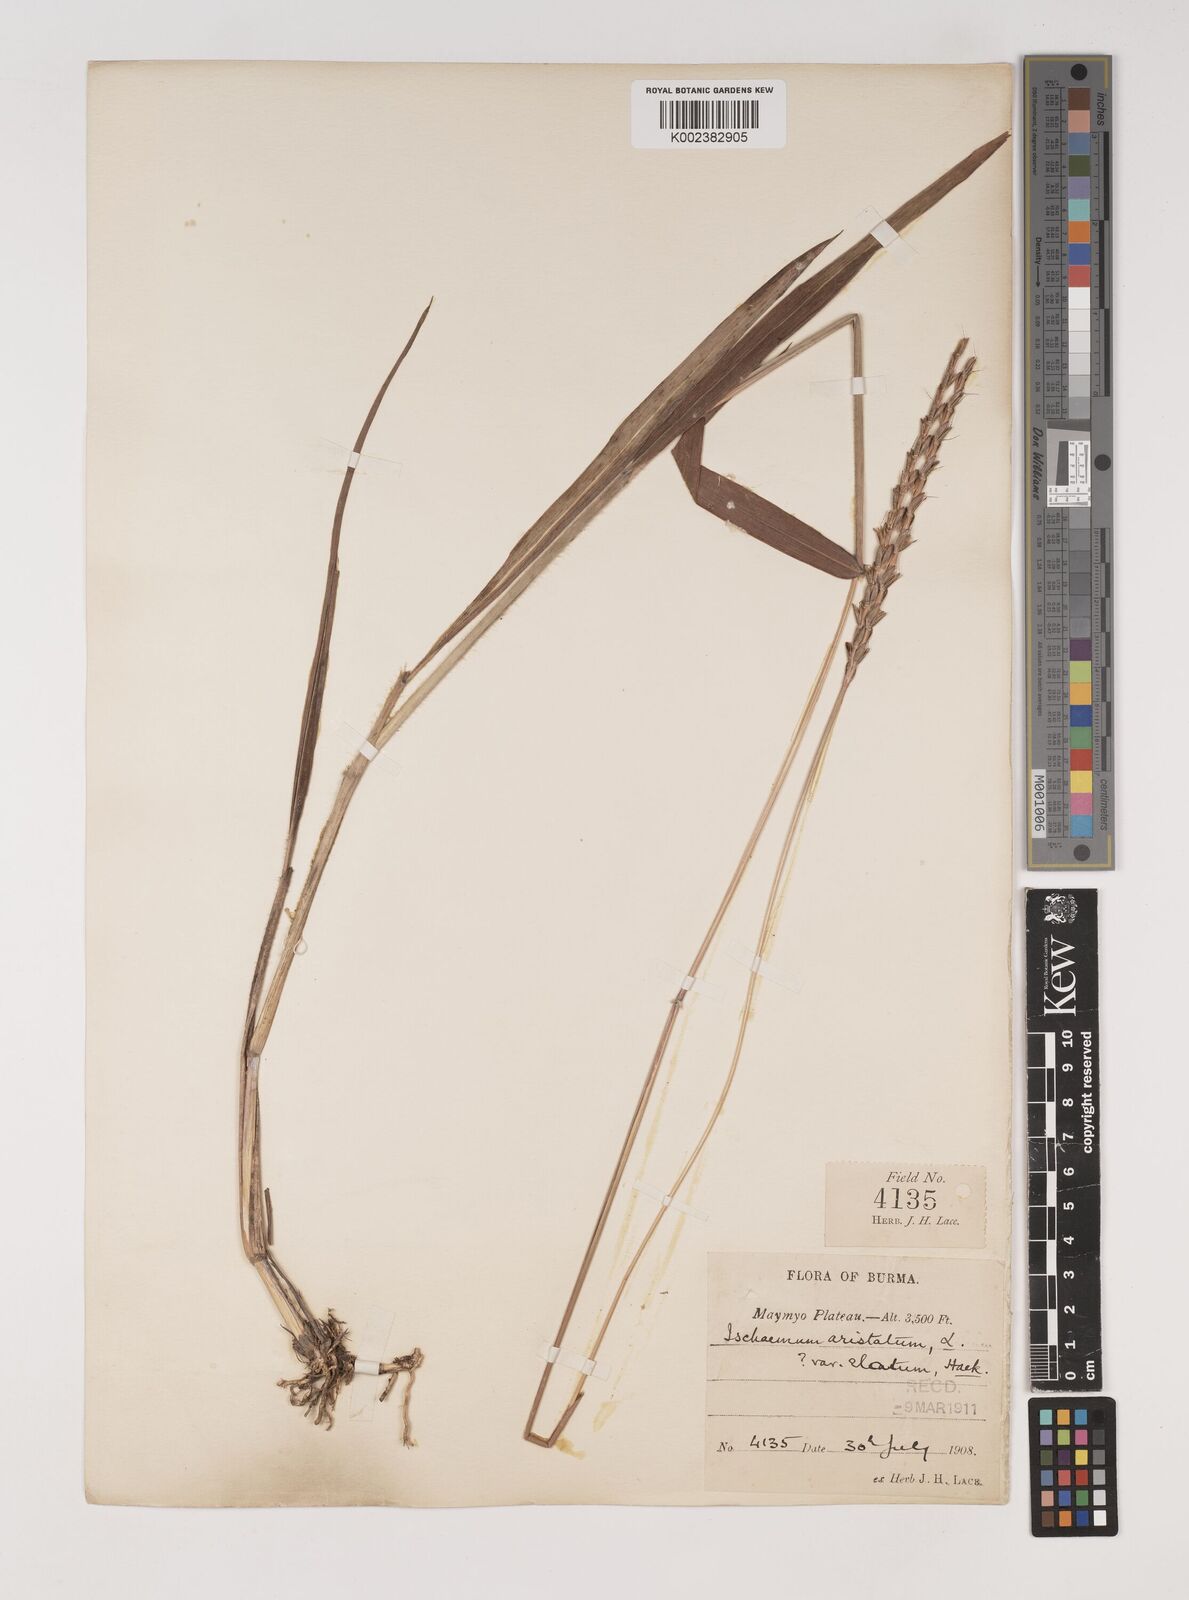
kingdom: Plantae
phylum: Tracheophyta
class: Liliopsida
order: Poales
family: Poaceae
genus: Ischaemum
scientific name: Ischaemum
